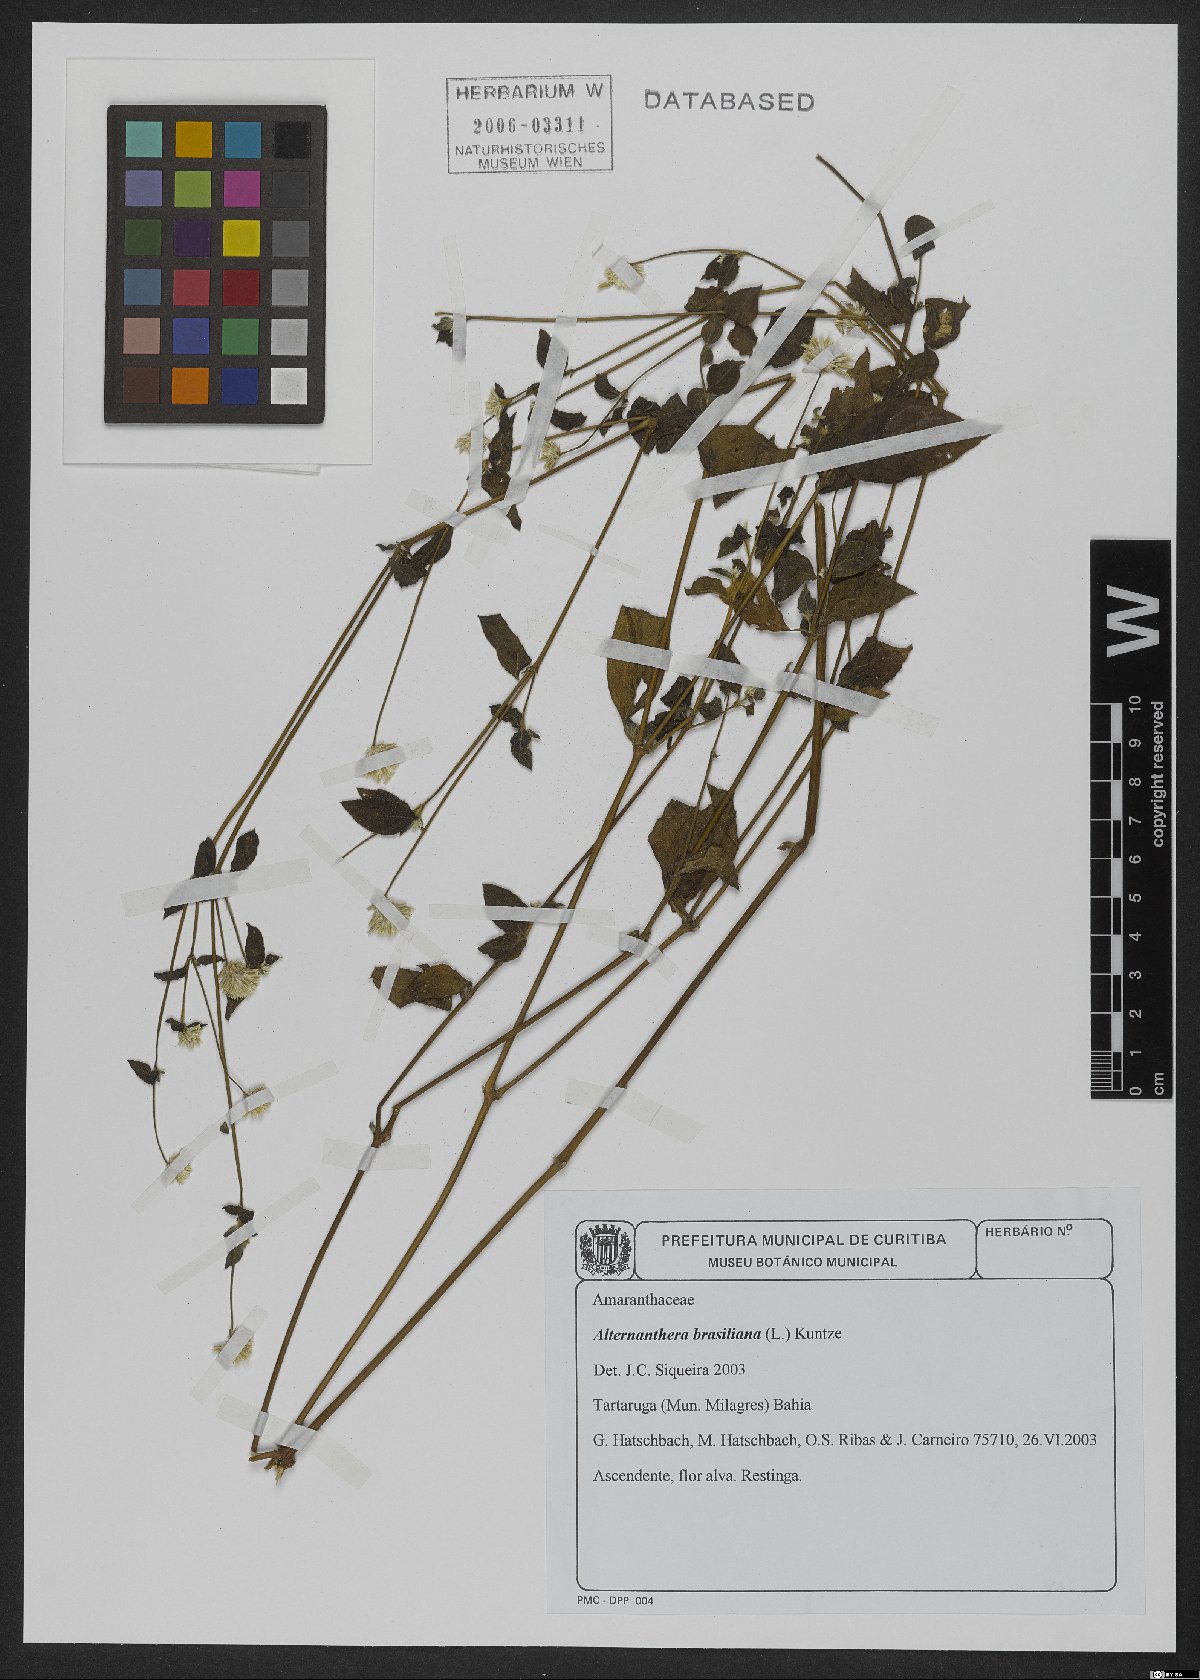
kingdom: Plantae
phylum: Tracheophyta
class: Magnoliopsida
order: Caryophyllales
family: Amaranthaceae
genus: Alternanthera
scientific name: Alternanthera brasiliana
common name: Brazilian joyweed
